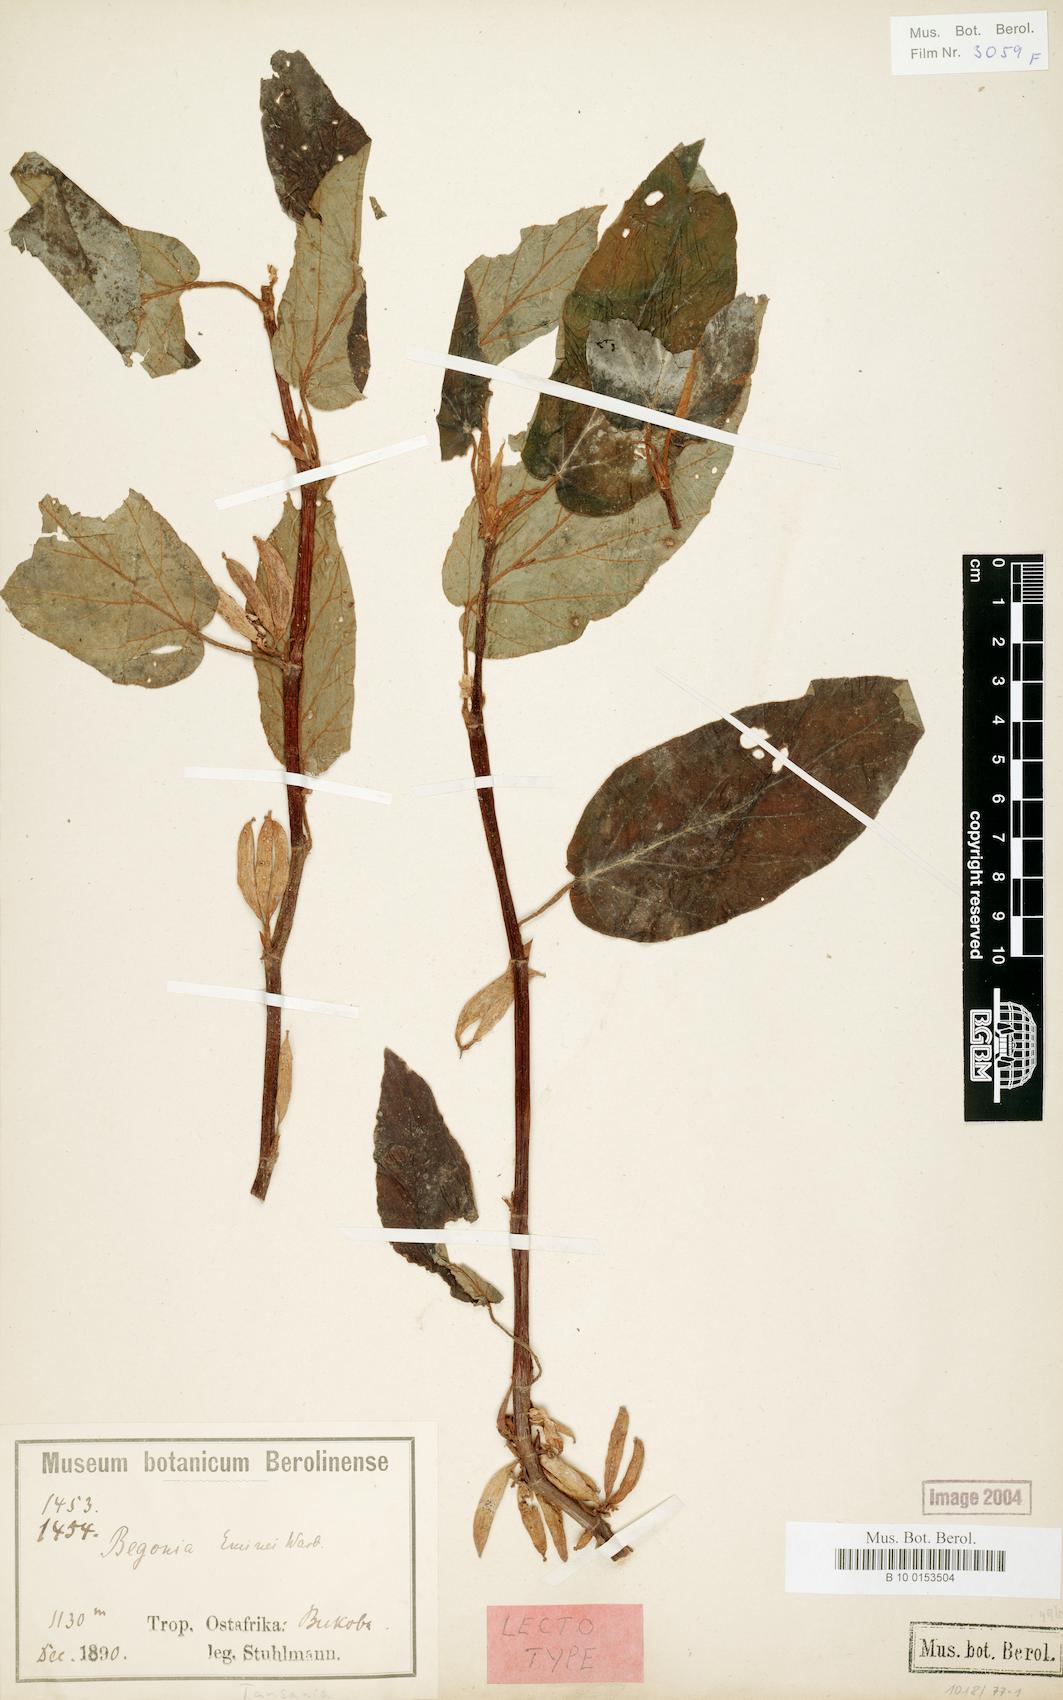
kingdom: Plantae
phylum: Tracheophyta
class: Magnoliopsida
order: Cucurbitales
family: Begoniaceae
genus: Begonia
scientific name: Begonia eminii
